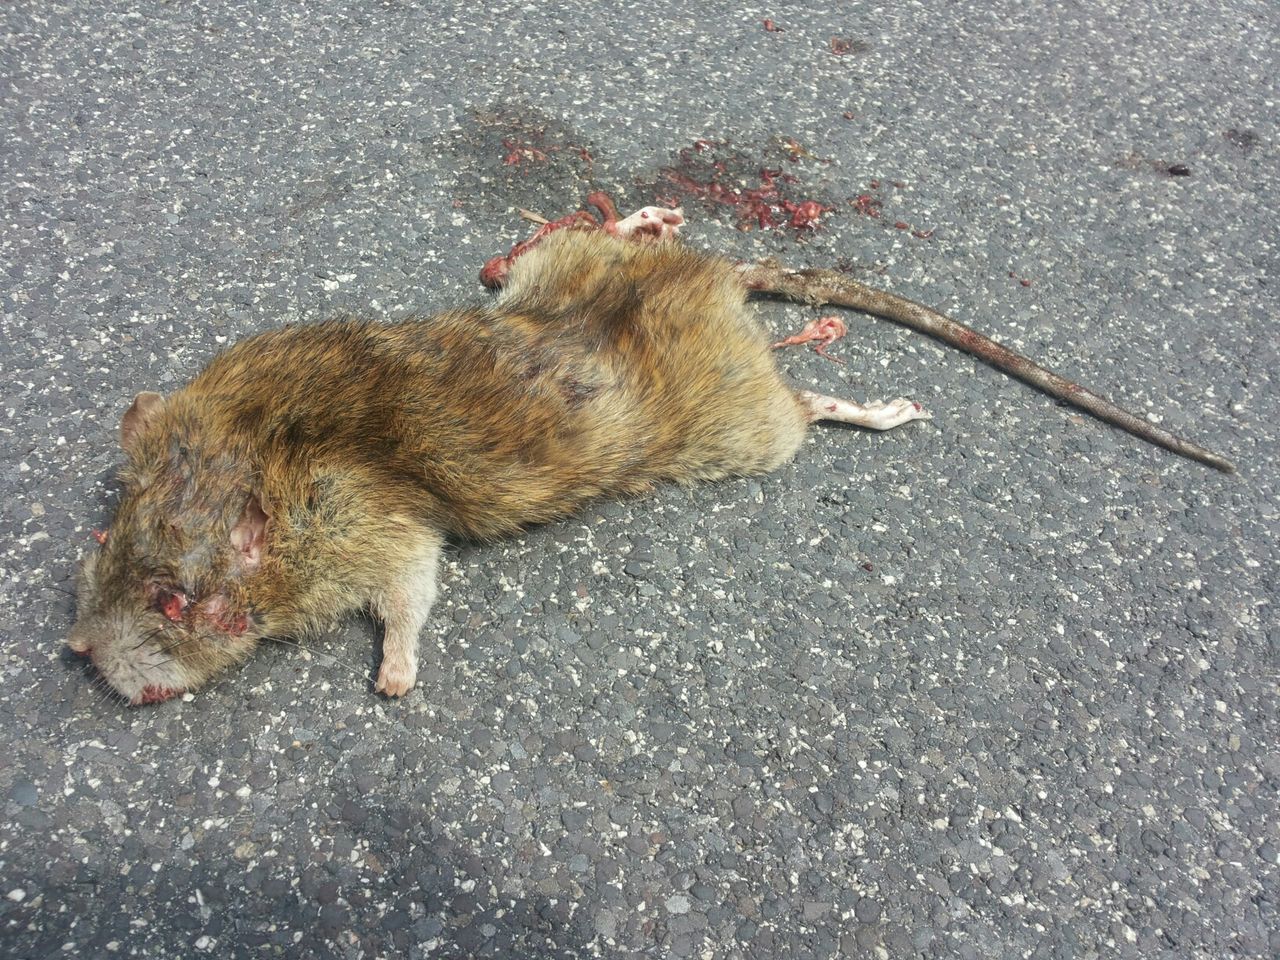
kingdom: Animalia
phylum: Chordata
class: Mammalia
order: Rodentia
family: Muridae
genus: Rattus
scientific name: Rattus norvegicus
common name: Brown rat
